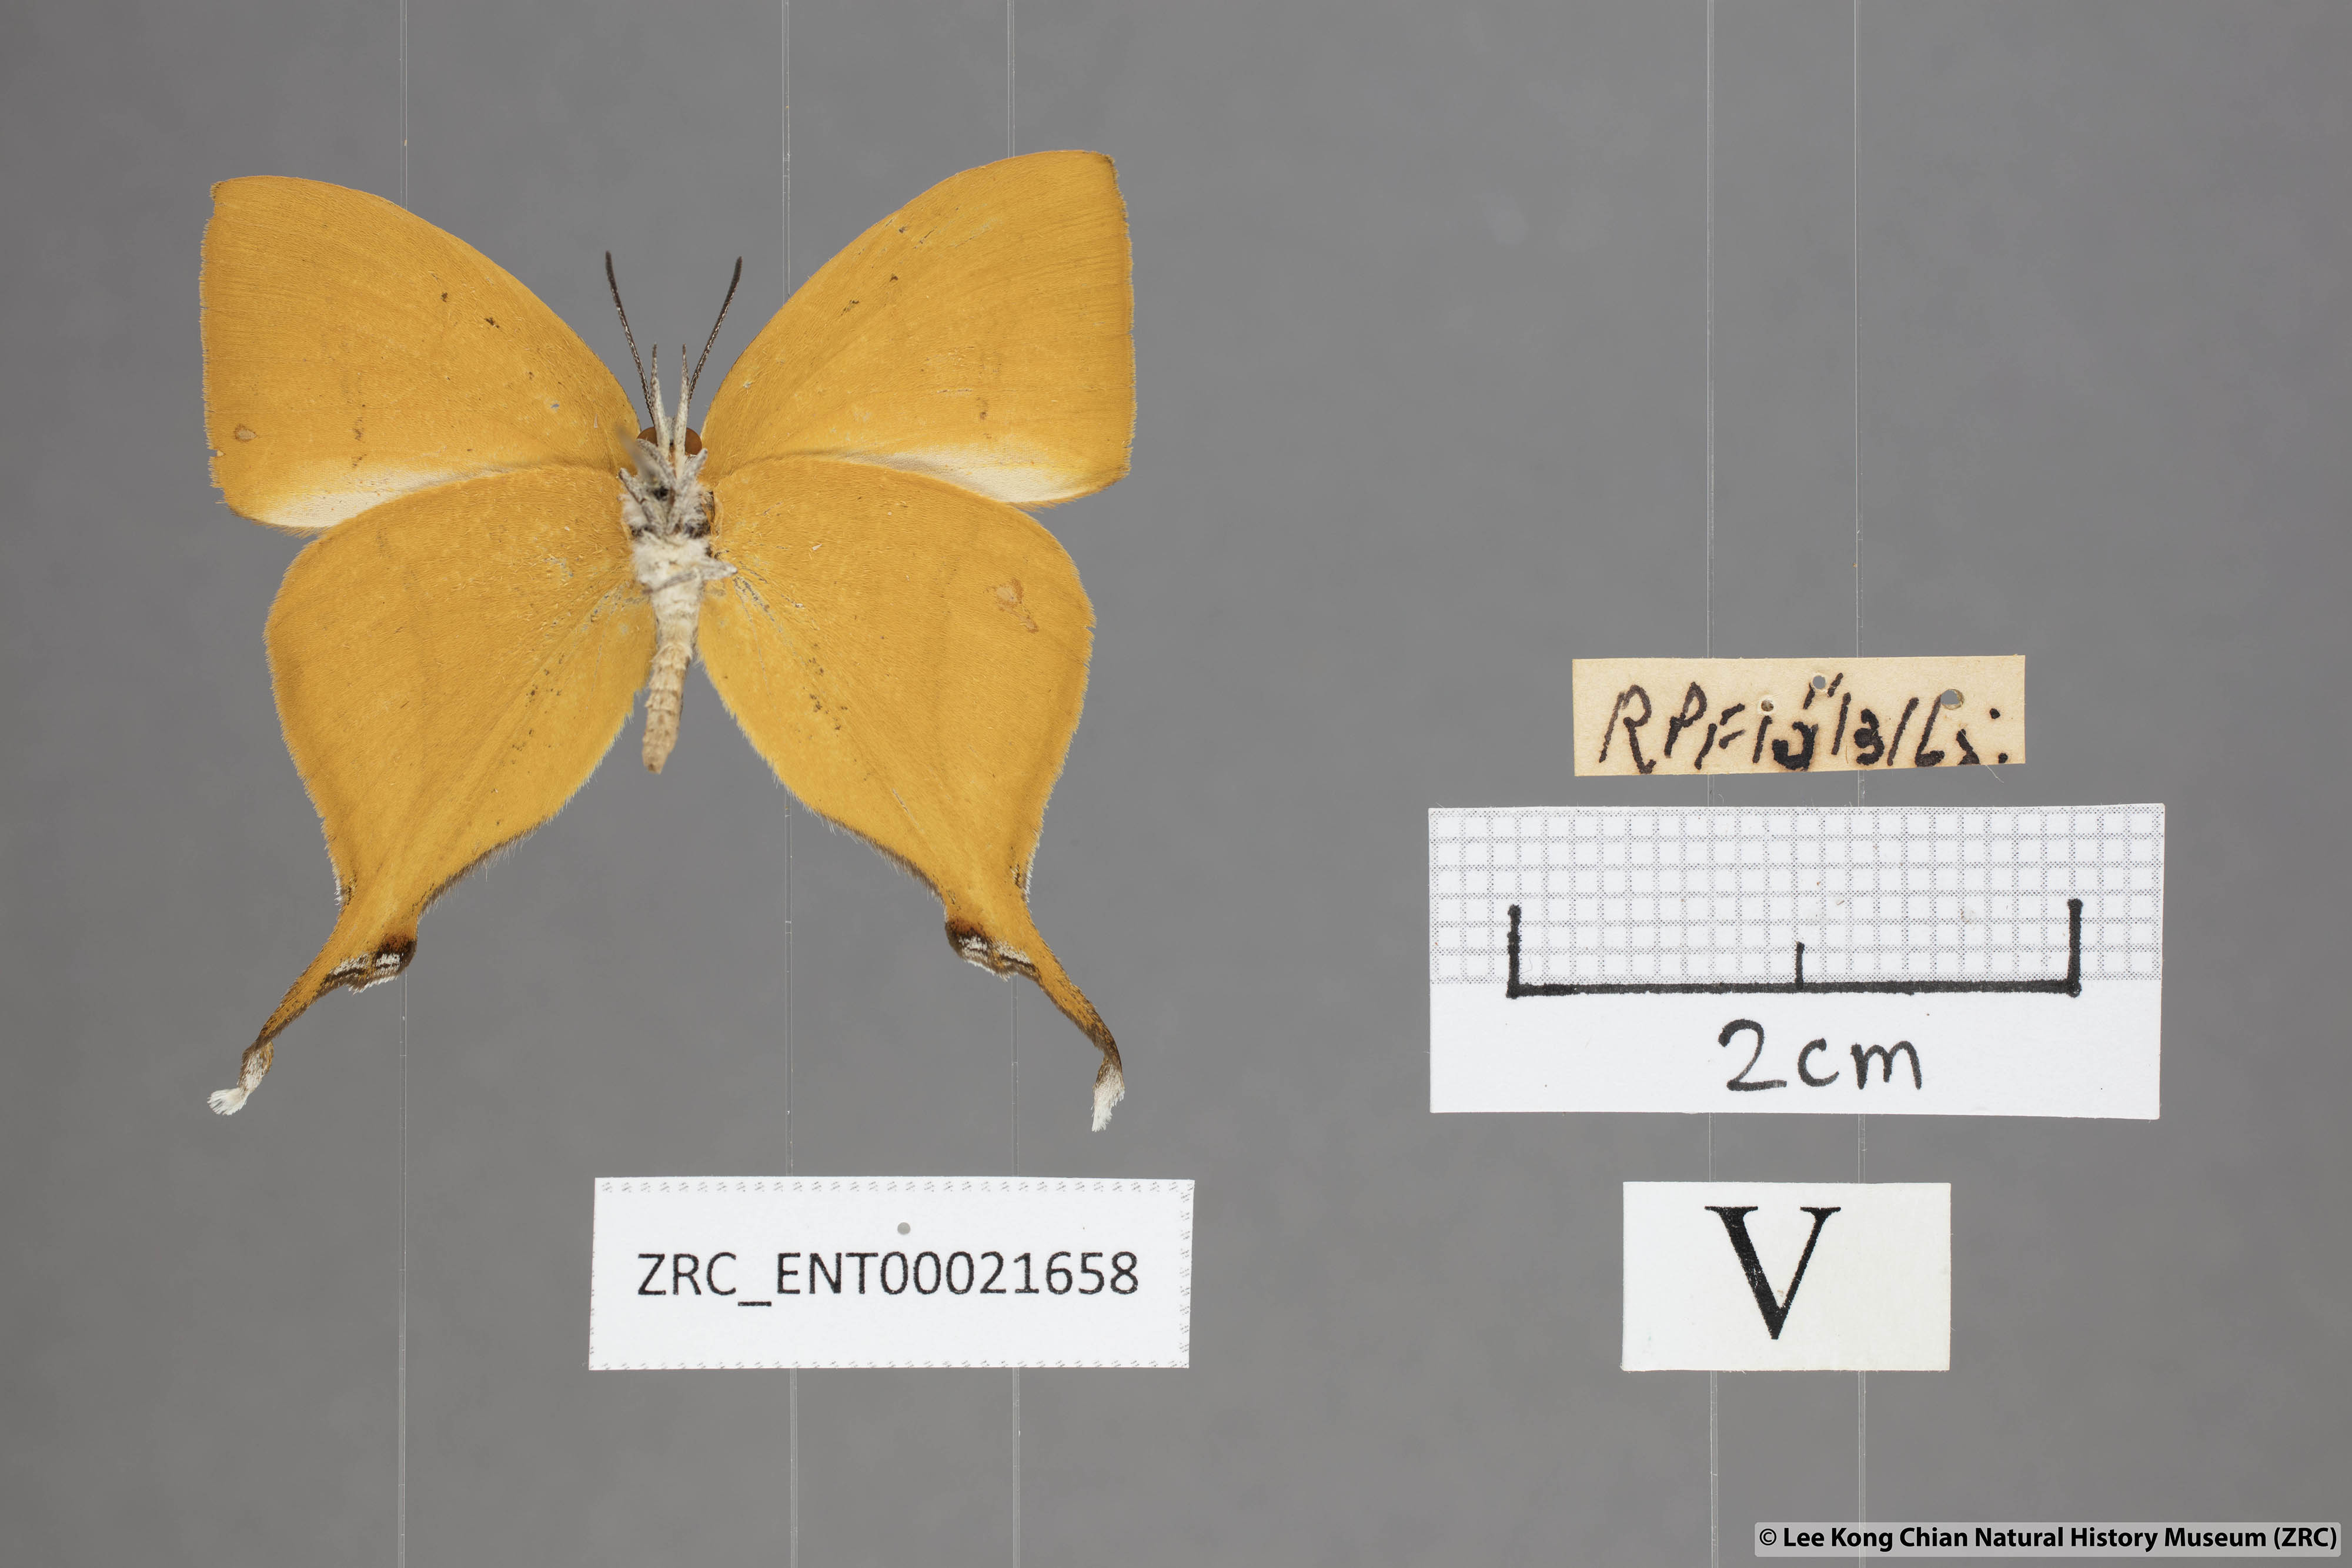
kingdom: Animalia
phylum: Arthropoda
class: Insecta
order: Lepidoptera
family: Lycaenidae
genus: Loxura
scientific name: Loxura atymnus
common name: Common yamfly
